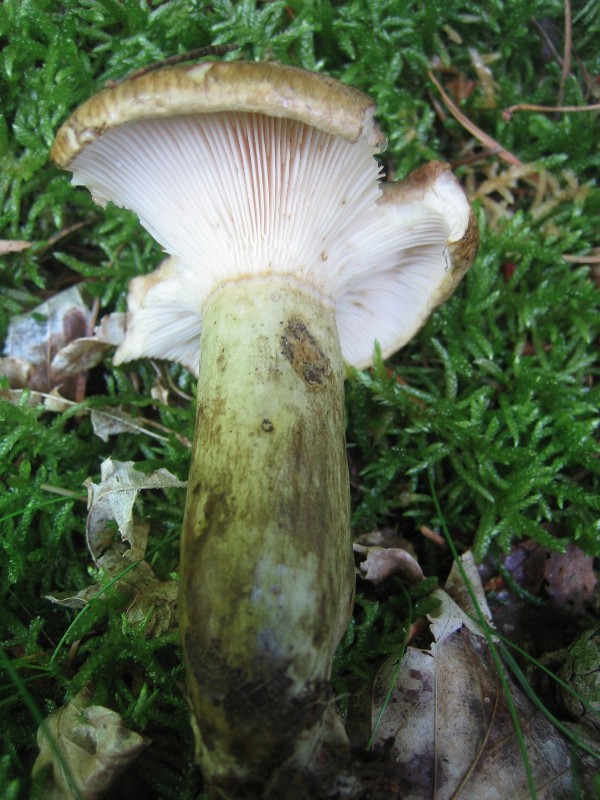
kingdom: Fungi
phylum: Basidiomycota
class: Agaricomycetes
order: Russulales
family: Russulaceae
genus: Lactarius
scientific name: Lactarius necator
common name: manddraber-mælkehat
